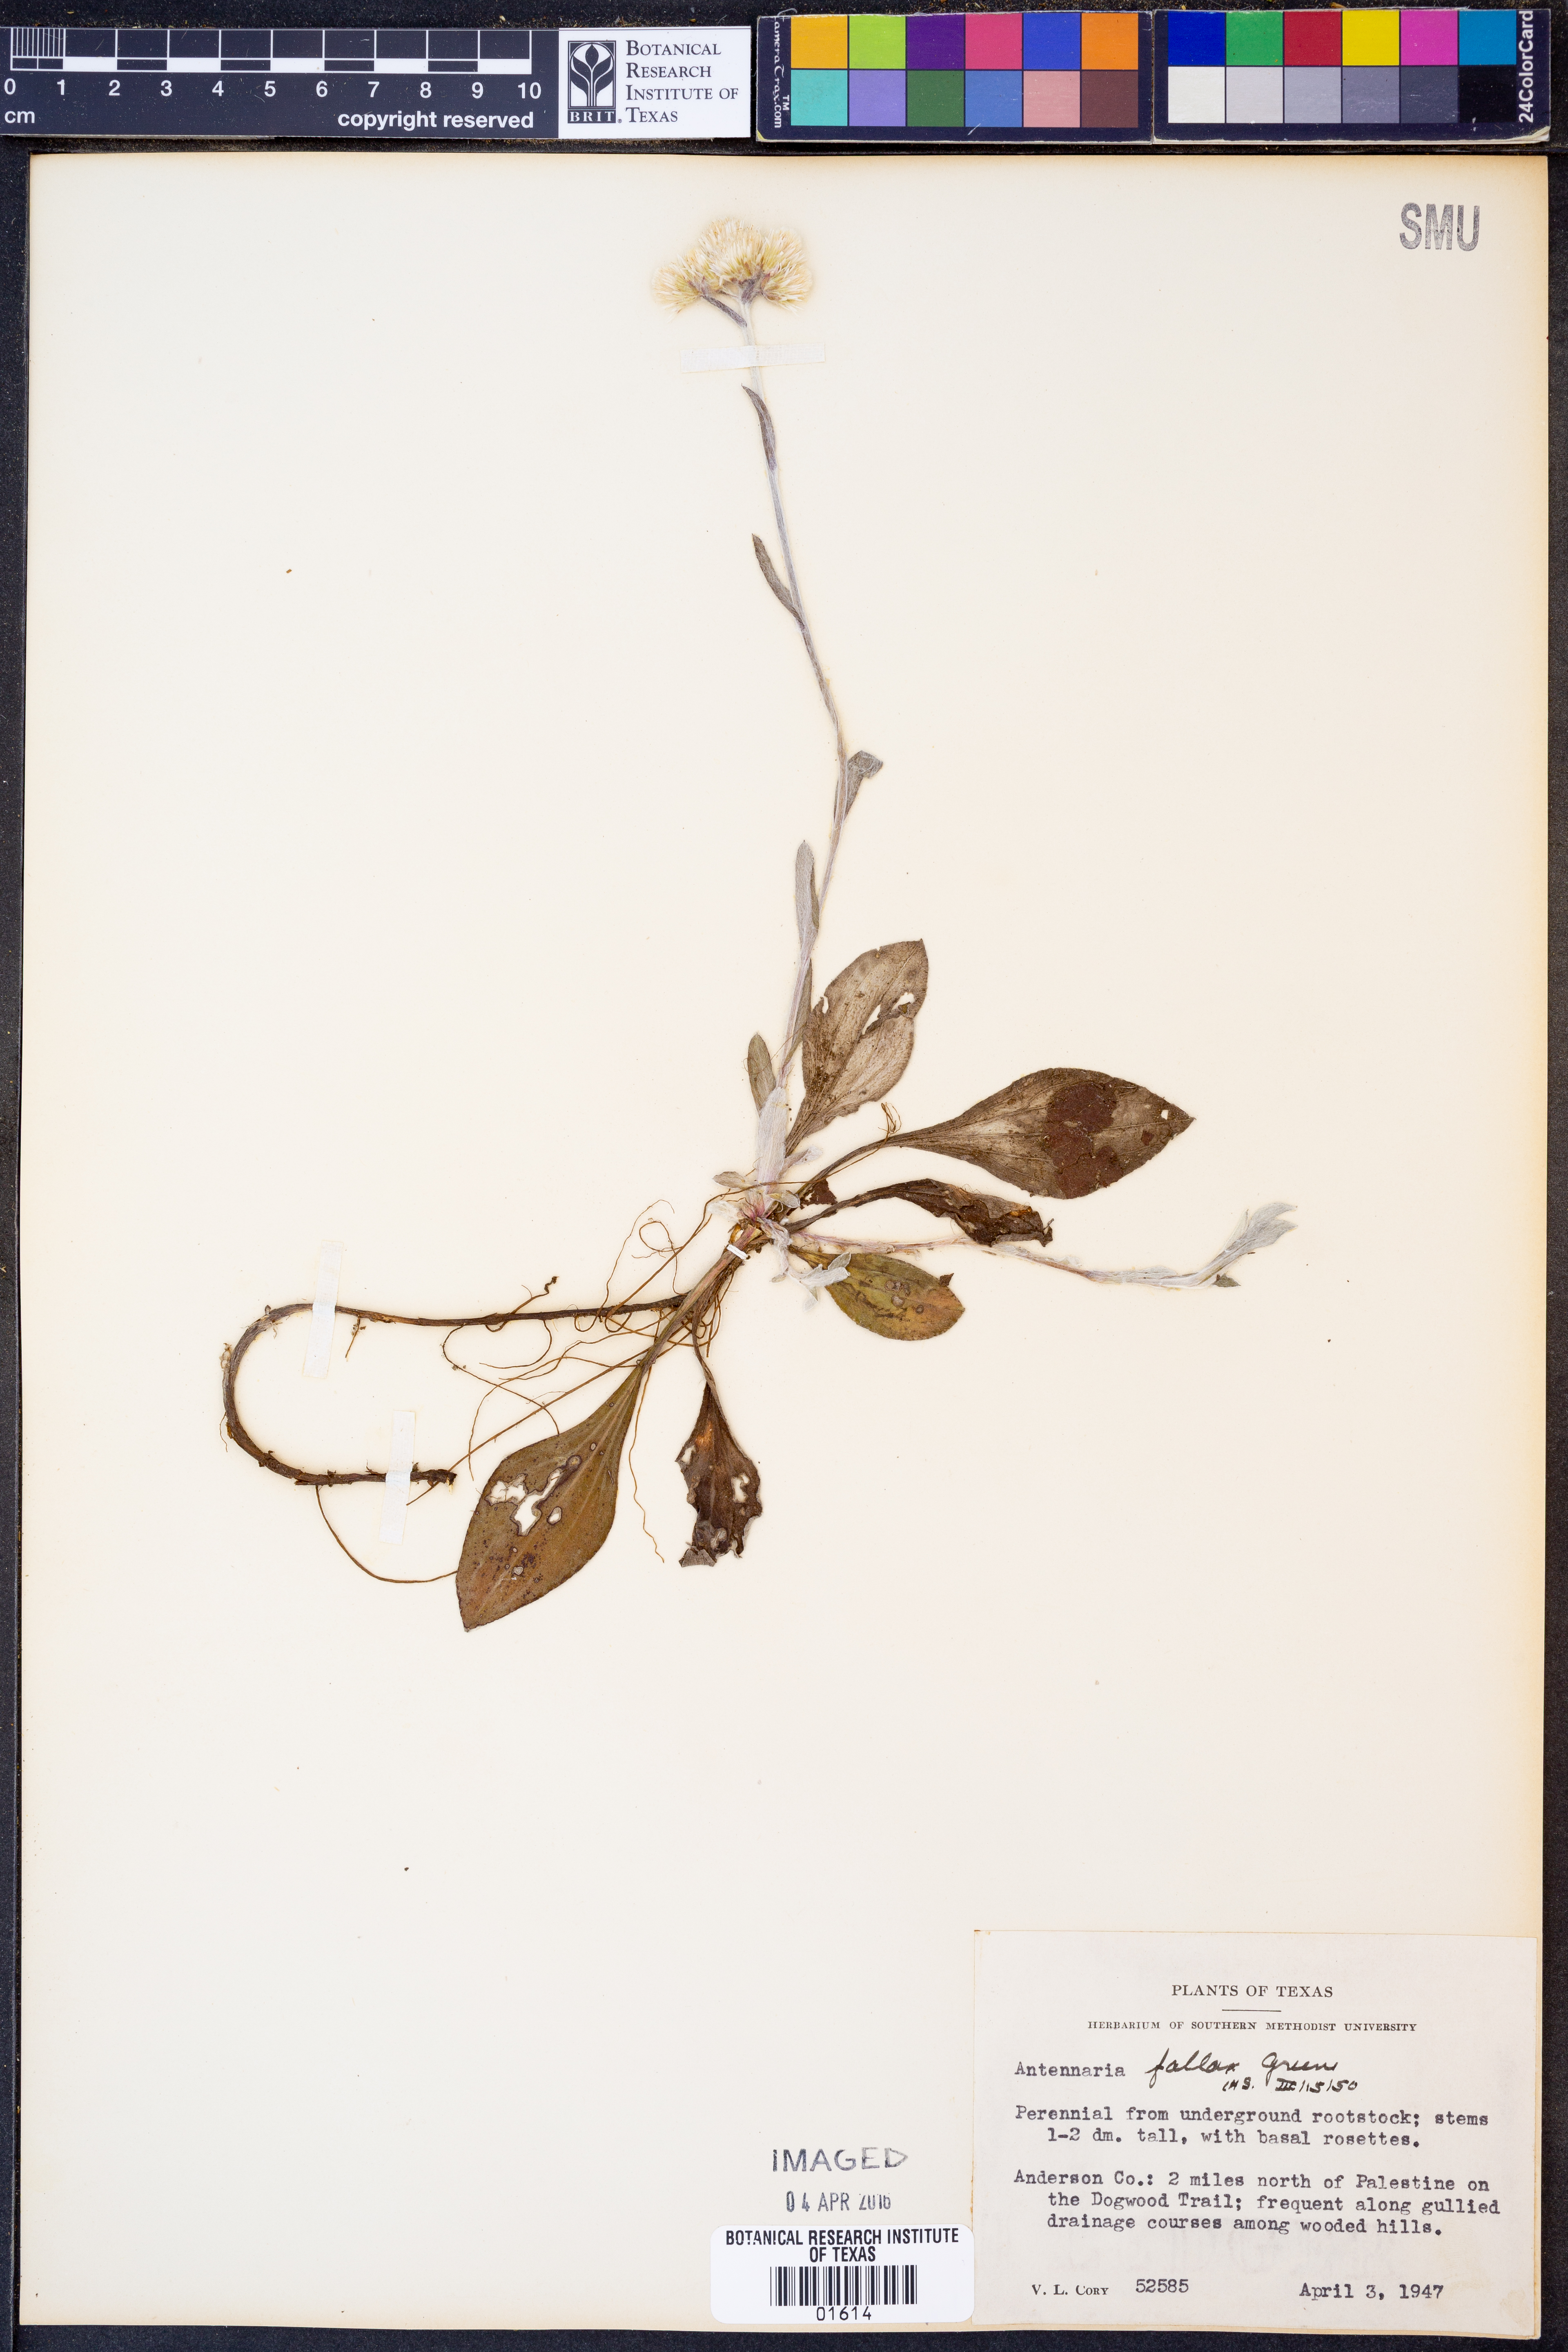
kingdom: Plantae
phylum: Tracheophyta
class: Magnoliopsida
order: Asterales
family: Asteraceae
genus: Antennaria
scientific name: Antennaria parlinii
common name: Parlin's pussytoes
